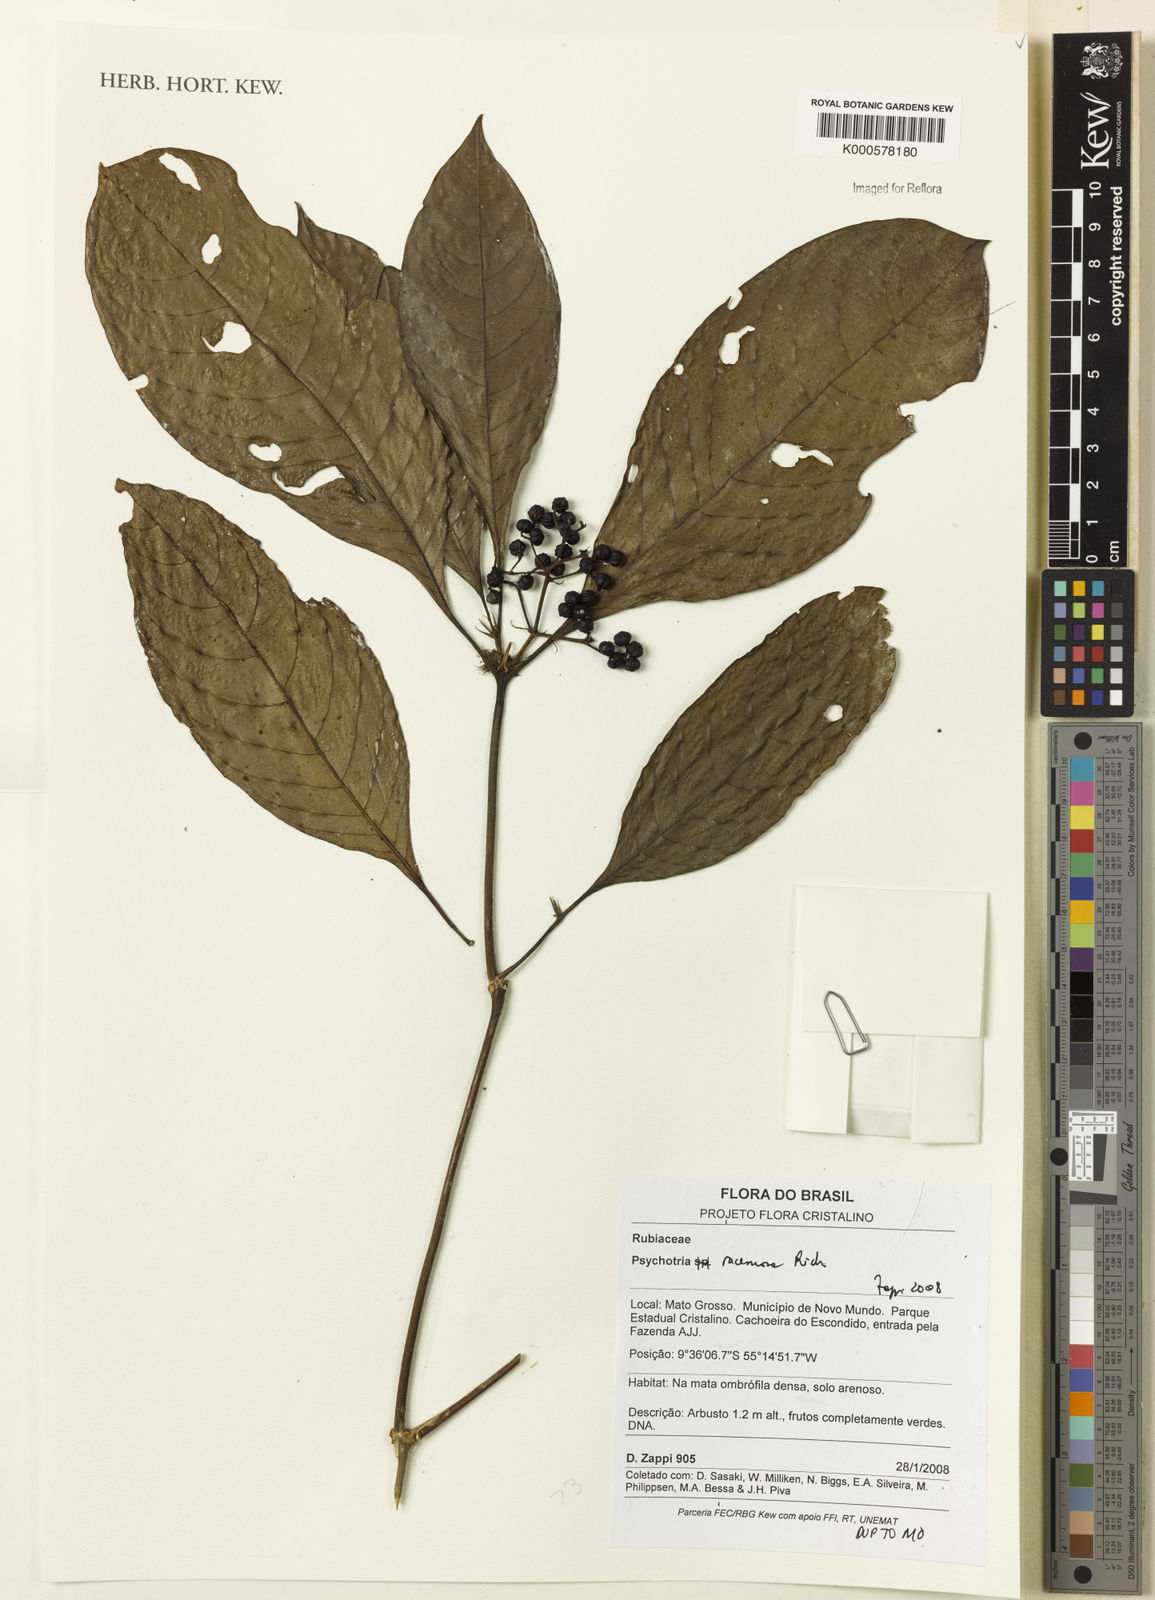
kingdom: Plantae
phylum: Tracheophyta
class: Magnoliopsida
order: Gentianales
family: Rubiaceae
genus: Palicourea
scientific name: Palicourea racemosa
